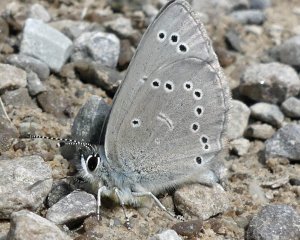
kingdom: Animalia
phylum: Arthropoda
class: Insecta
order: Lepidoptera
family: Lycaenidae
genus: Glaucopsyche
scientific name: Glaucopsyche lygdamus
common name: Silvery Blue
